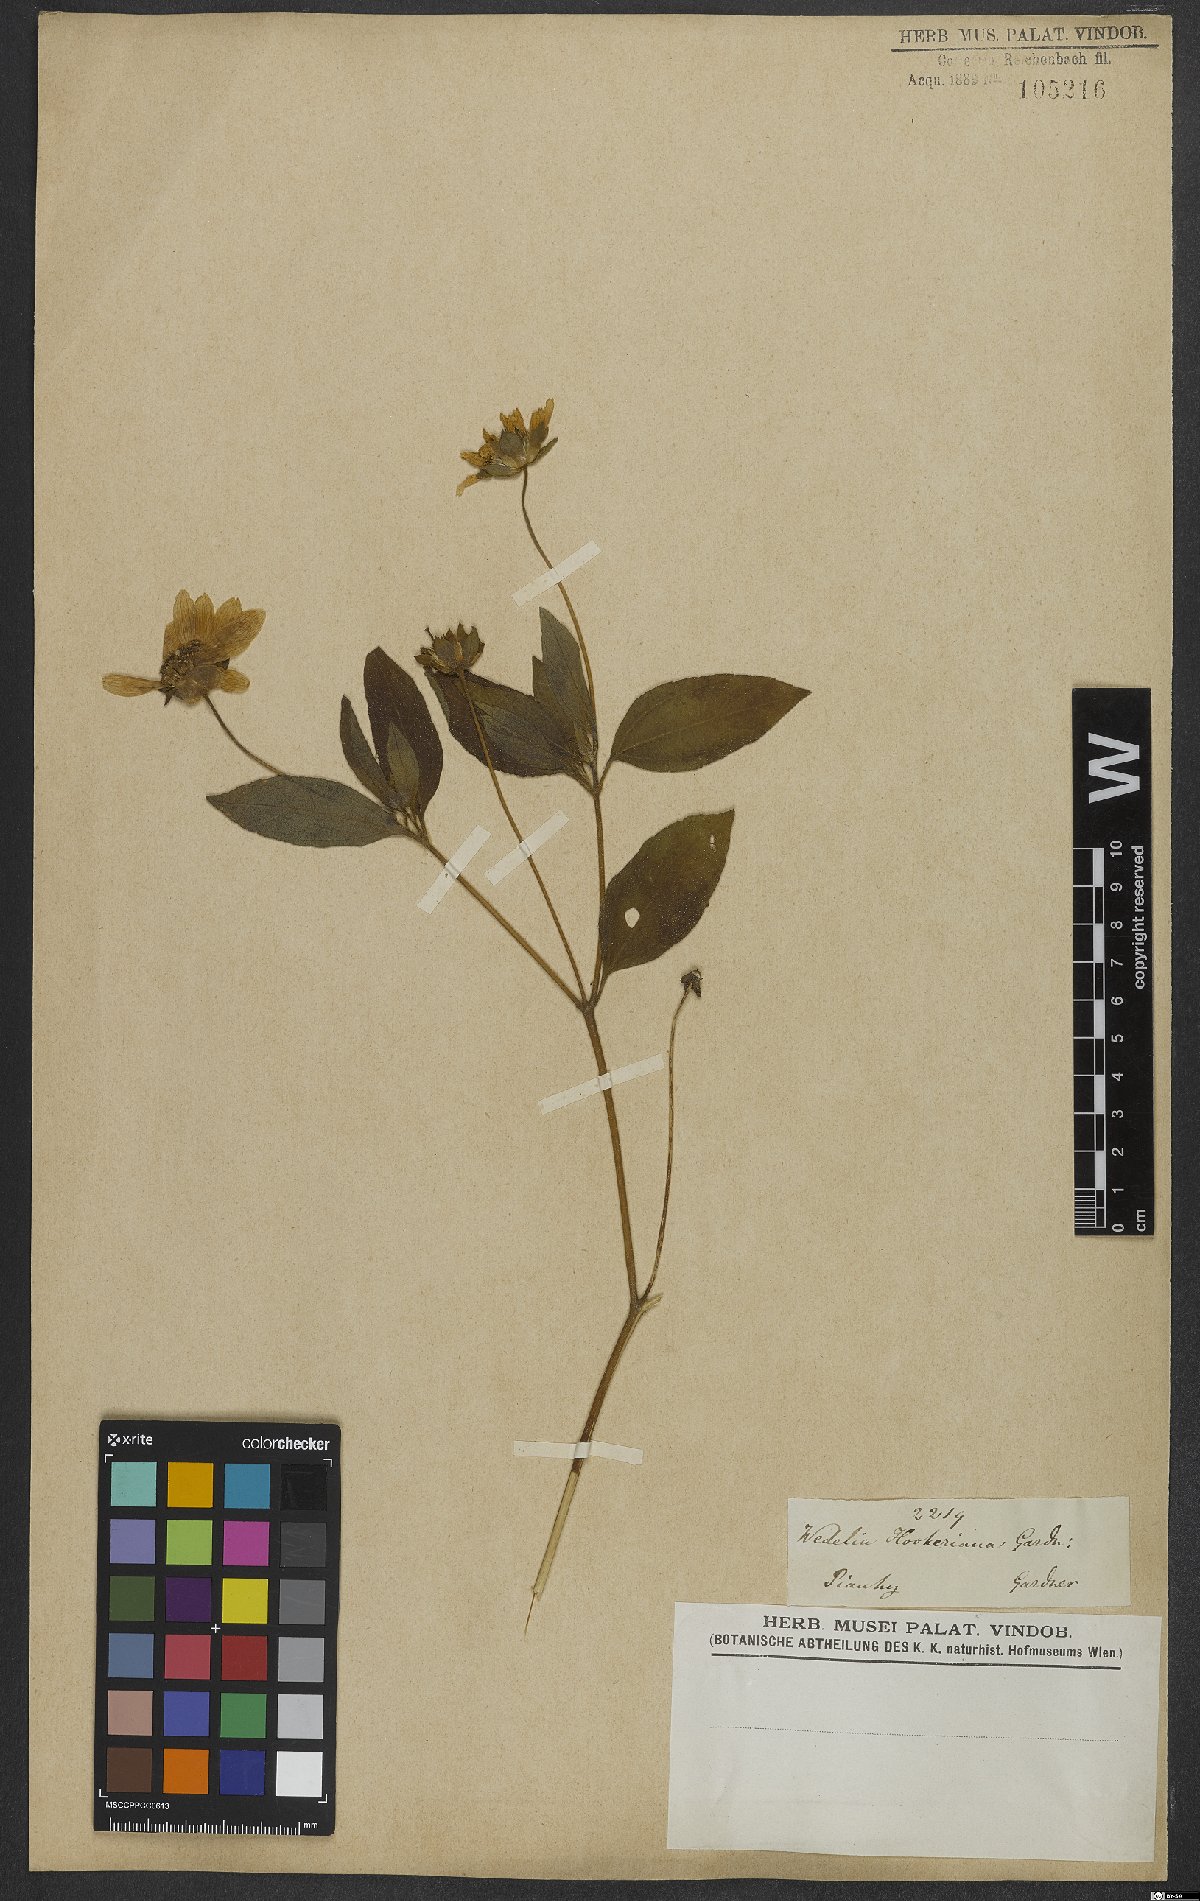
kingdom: Plantae
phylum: Tracheophyta
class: Magnoliopsida
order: Asterales
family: Asteraceae
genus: Wedelia
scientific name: Wedelia hookeriana
